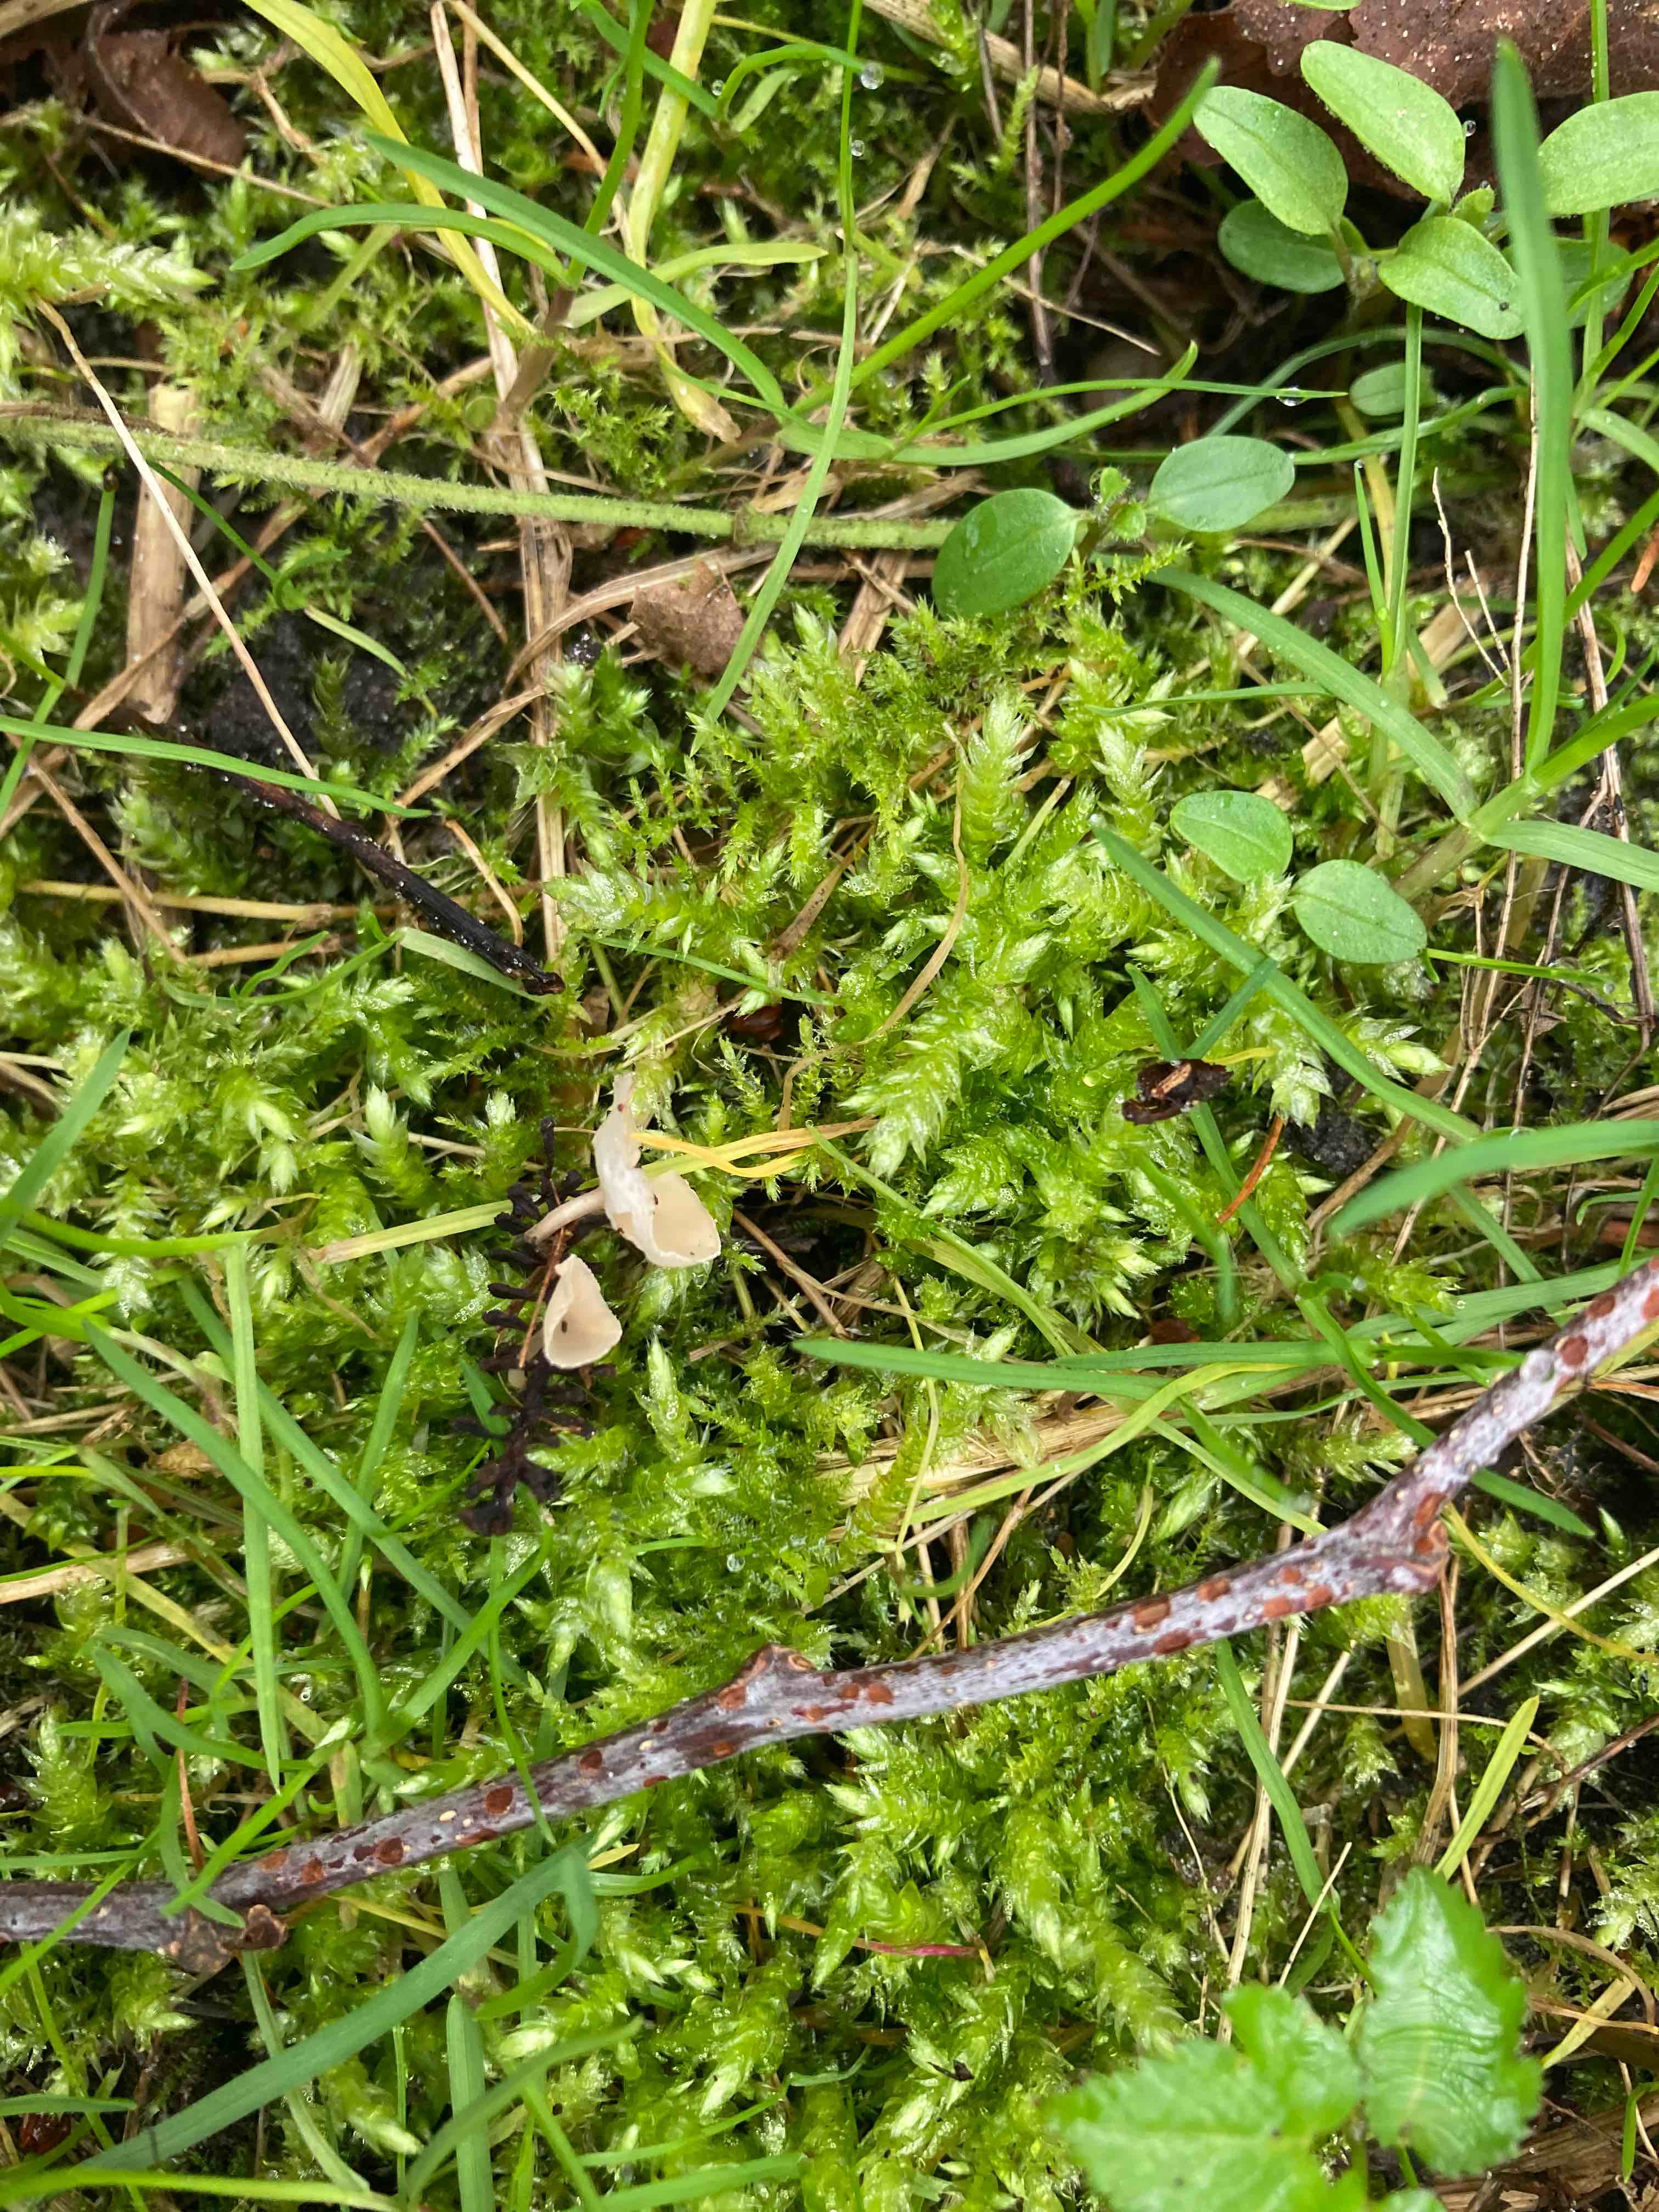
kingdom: Fungi
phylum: Ascomycota
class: Leotiomycetes
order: Helotiales
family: Sclerotiniaceae
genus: Ciboria
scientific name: Ciboria amentacea
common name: ellerakle-knoldskive
